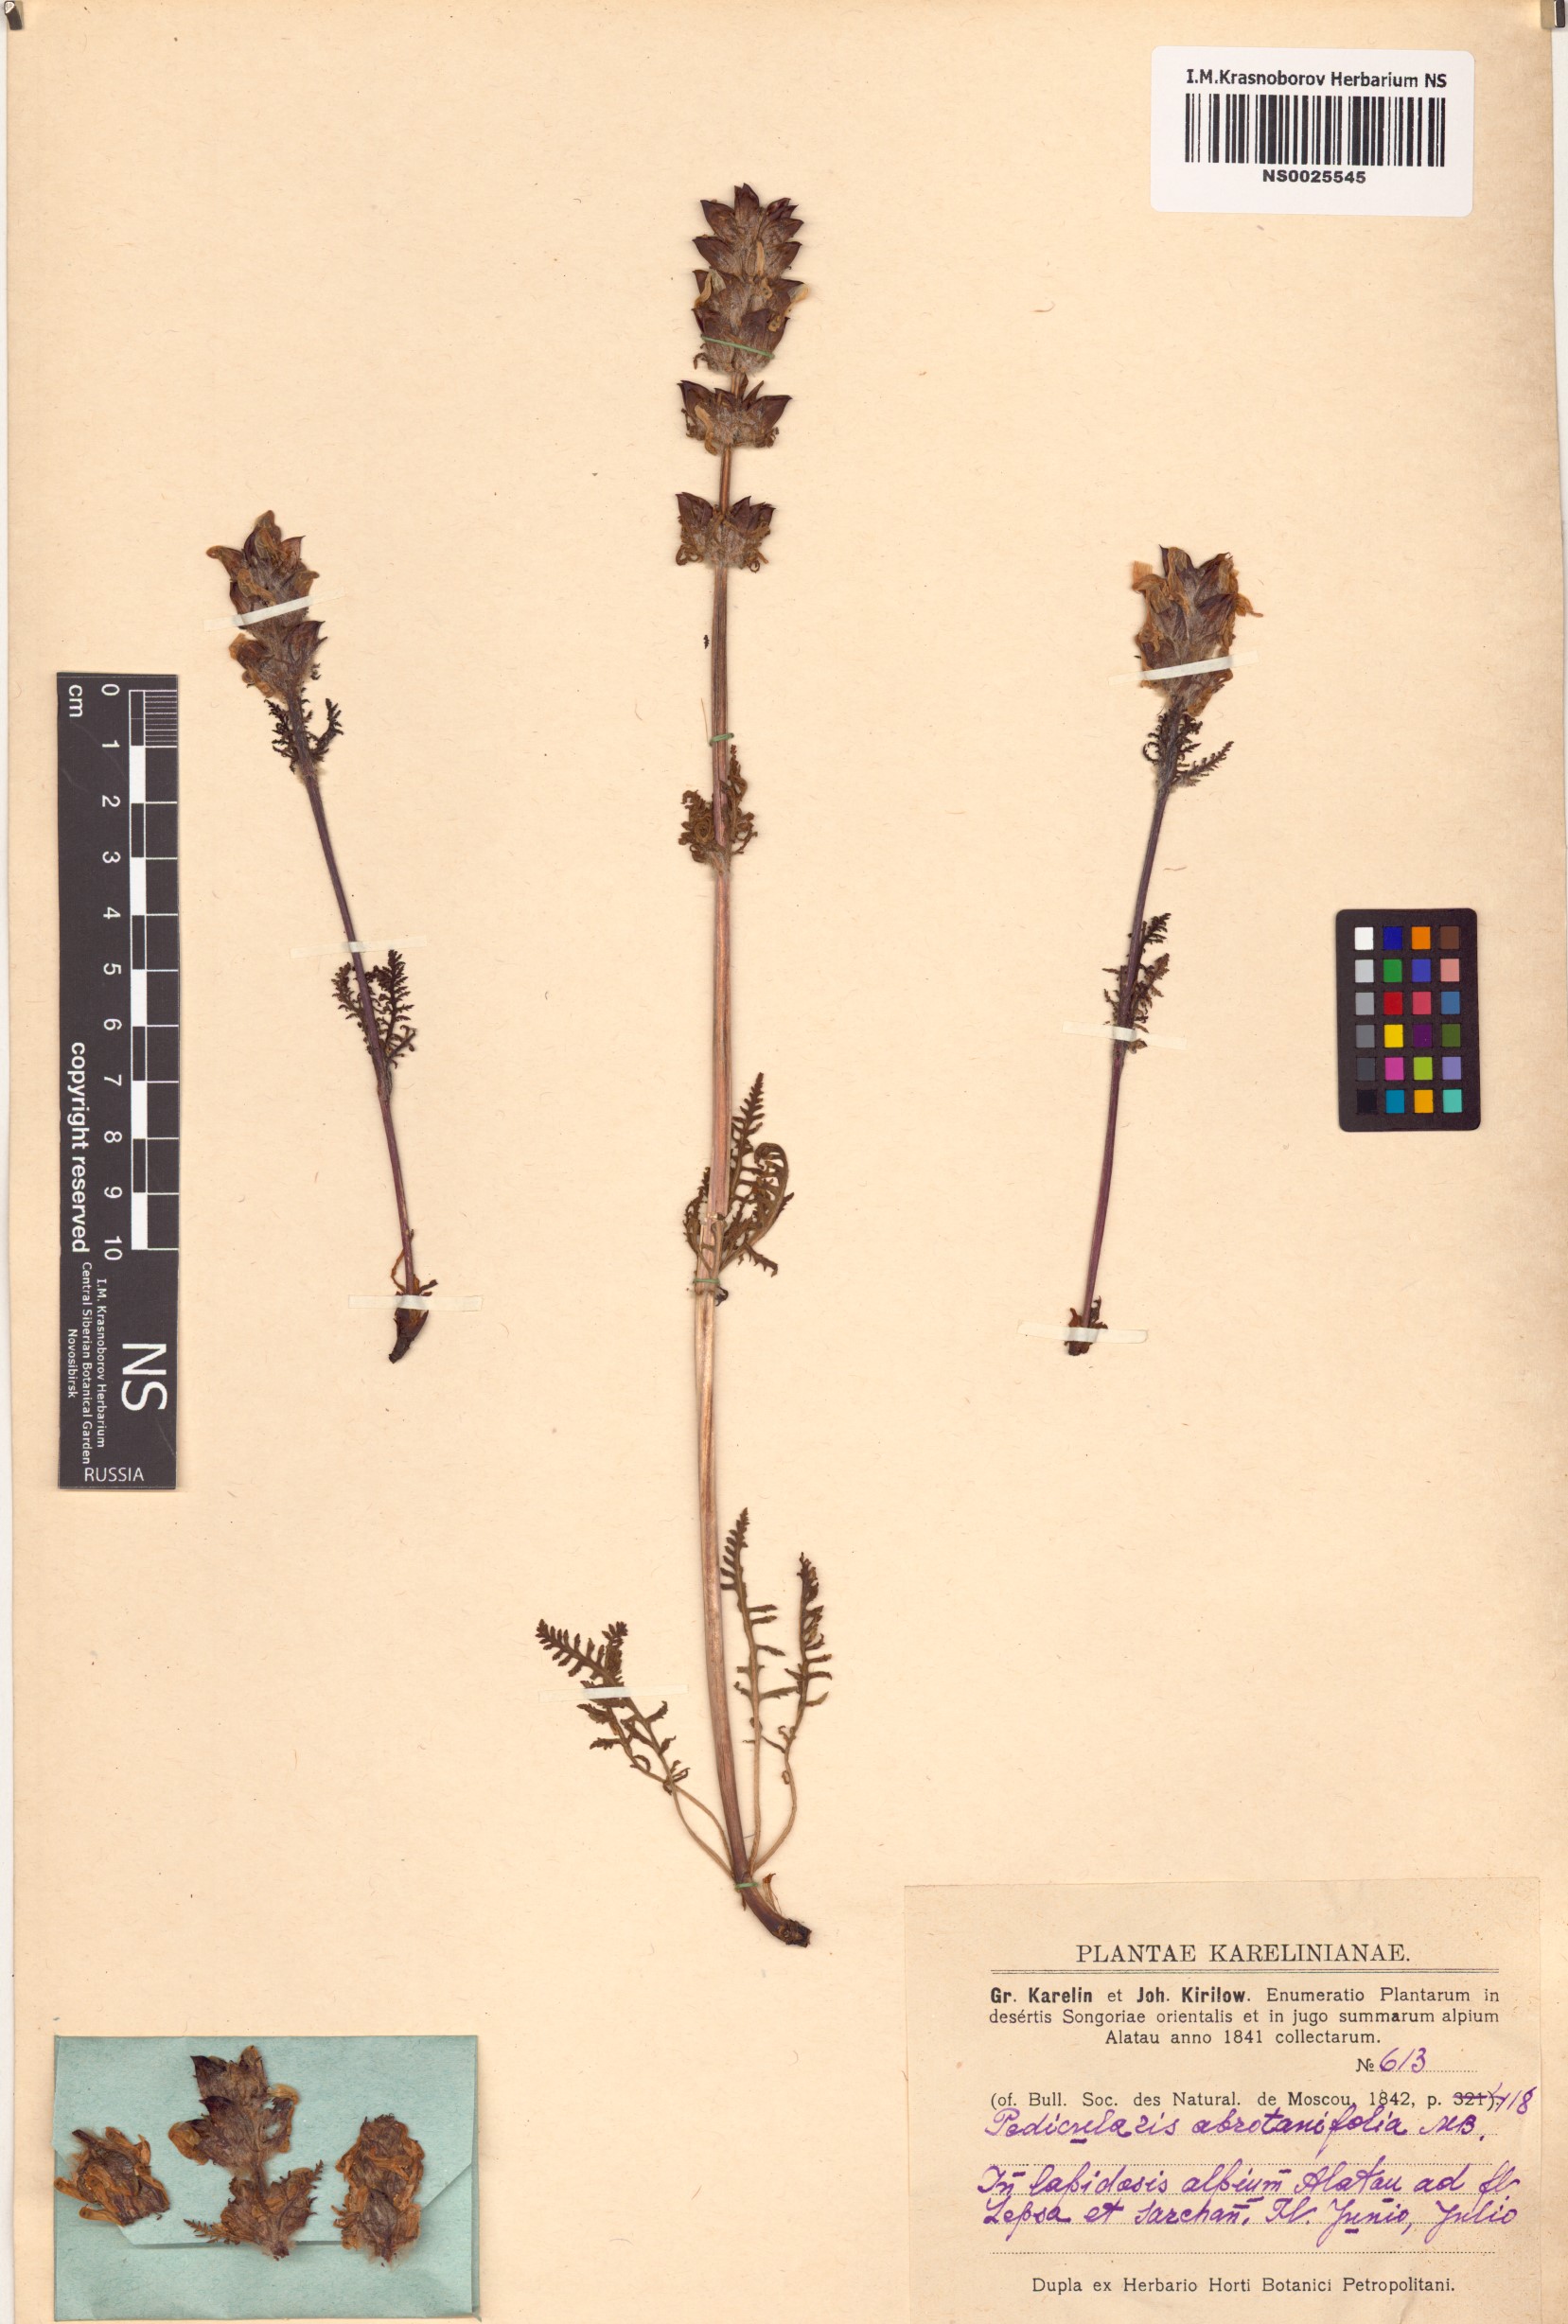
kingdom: Plantae
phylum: Tracheophyta
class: Magnoliopsida
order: Lamiales
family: Orobanchaceae
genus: Pedicularis
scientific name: Pedicularis abrotanifolia
